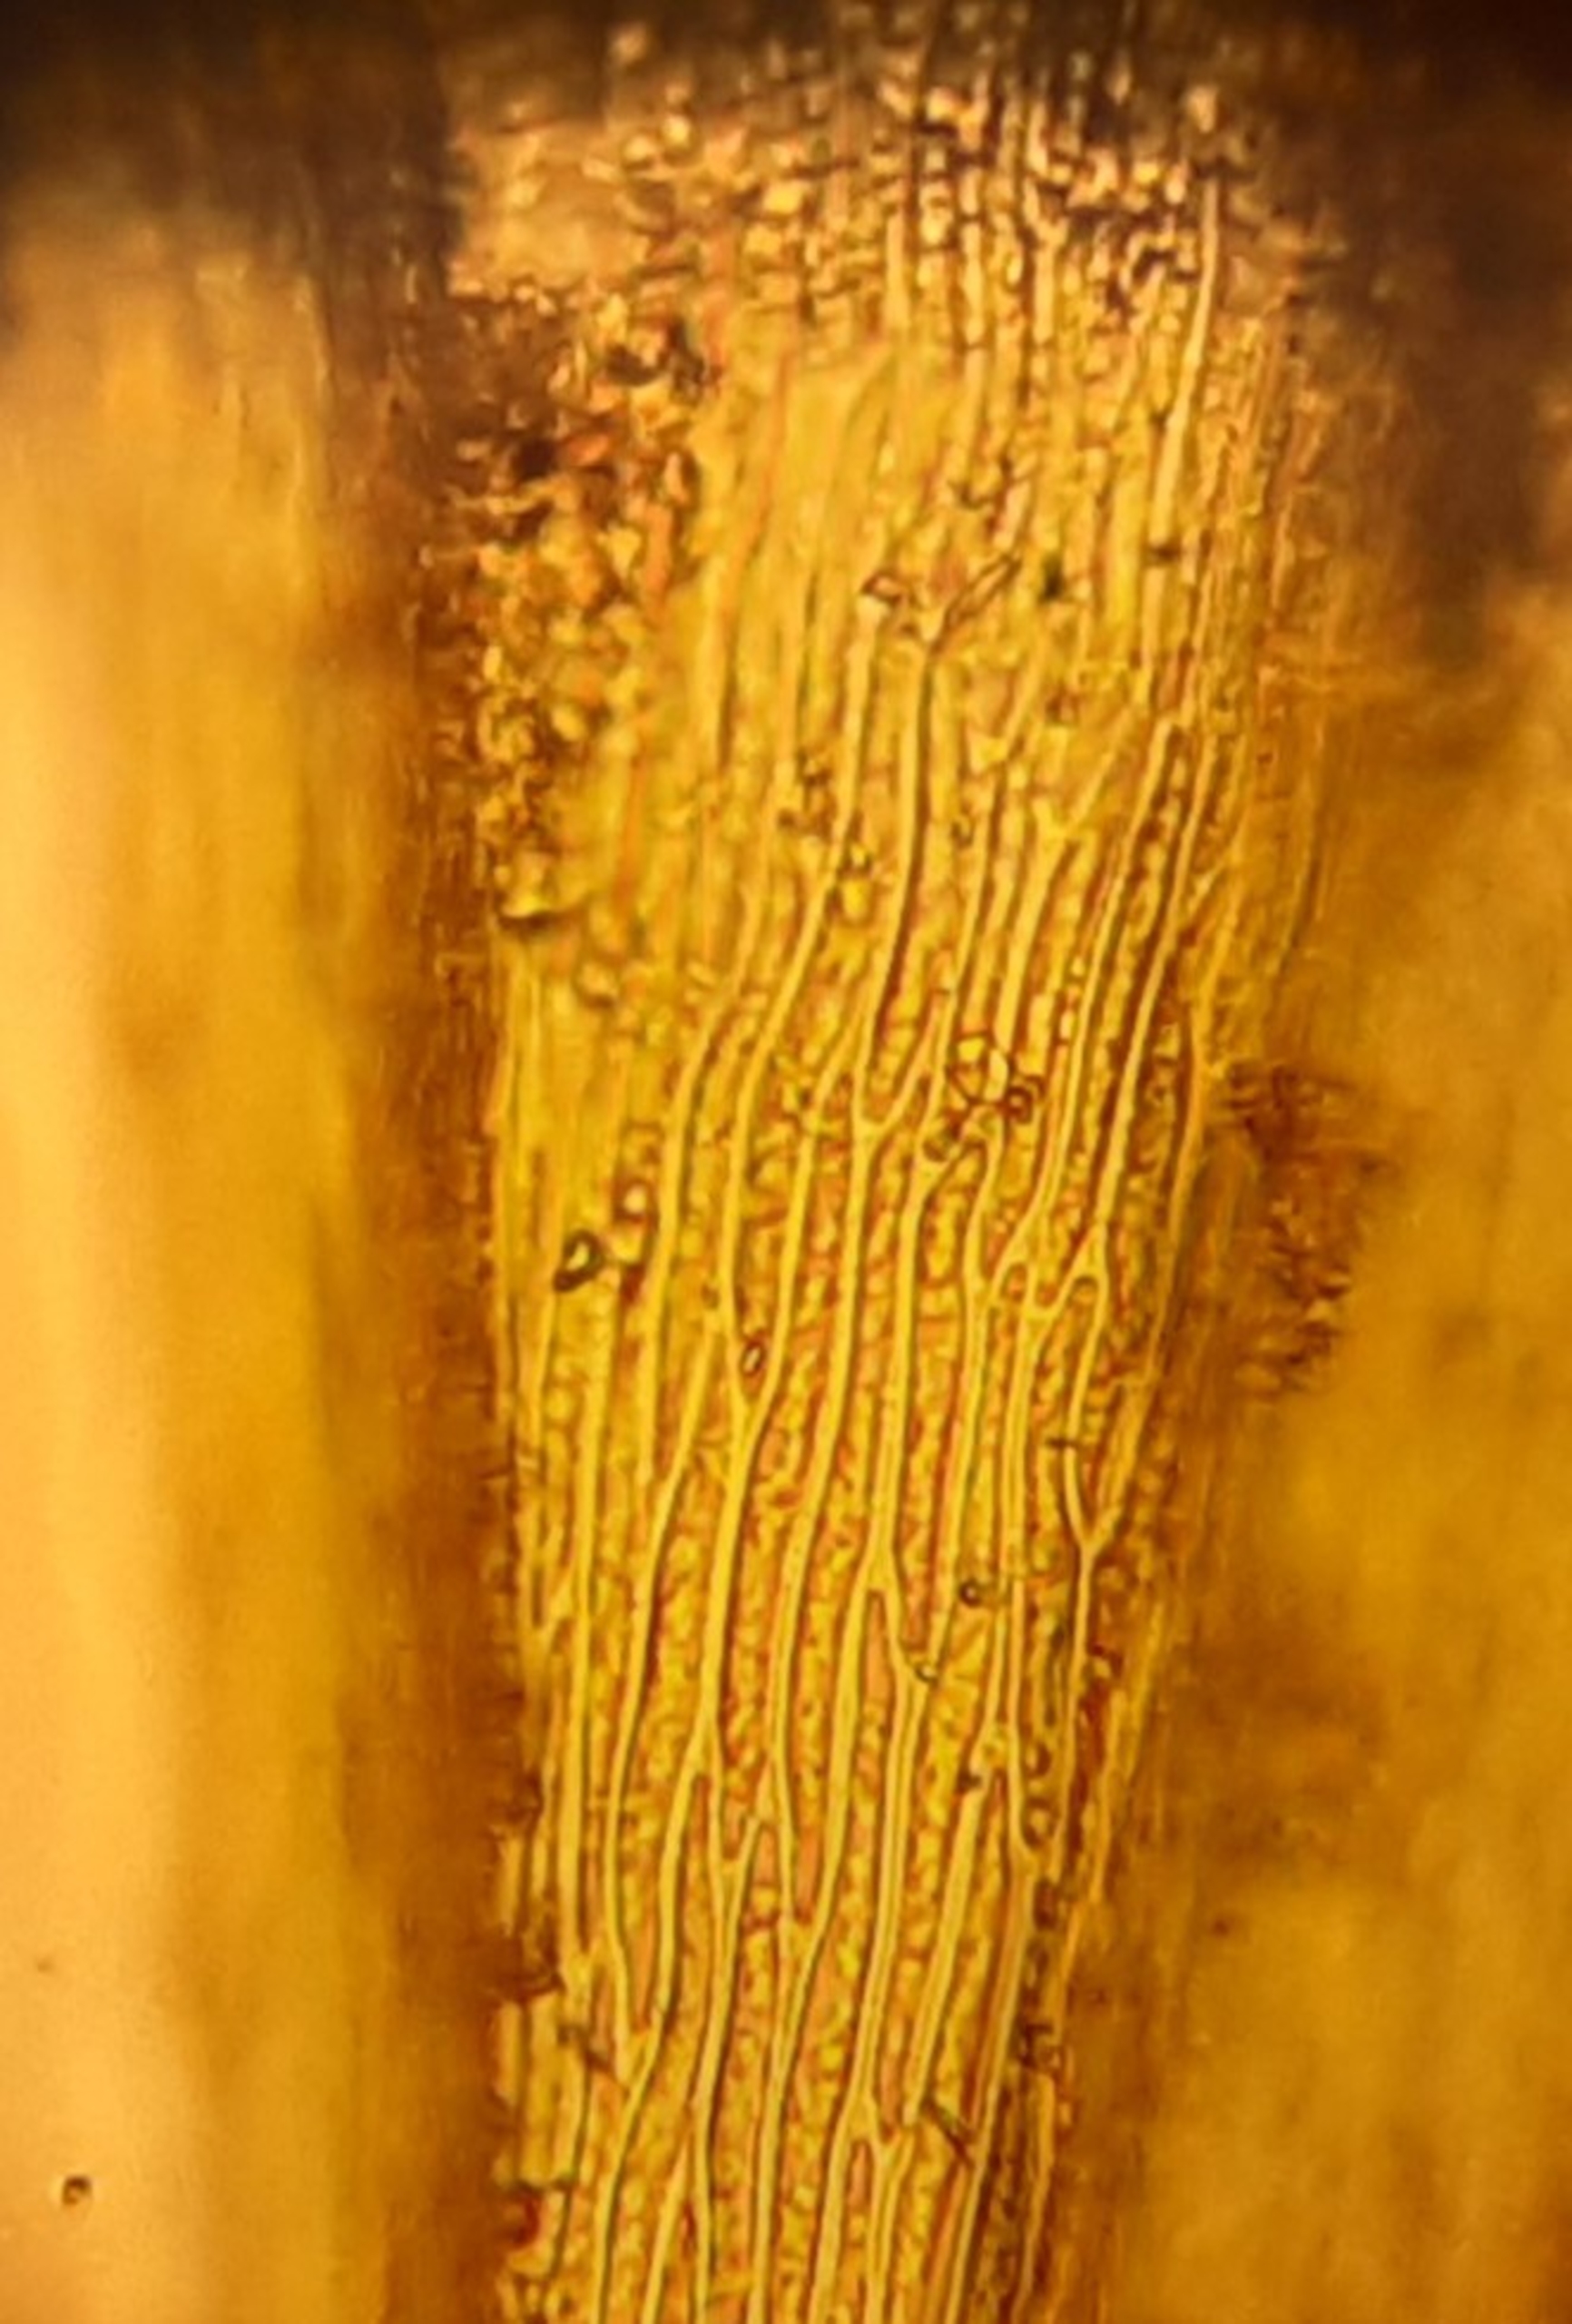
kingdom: Plantae
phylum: Bryophyta
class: Bryopsida
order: Hypnales
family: Brachytheciaceae
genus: Homalothecium
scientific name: Homalothecium lutescens
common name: Gul krumkapsel
